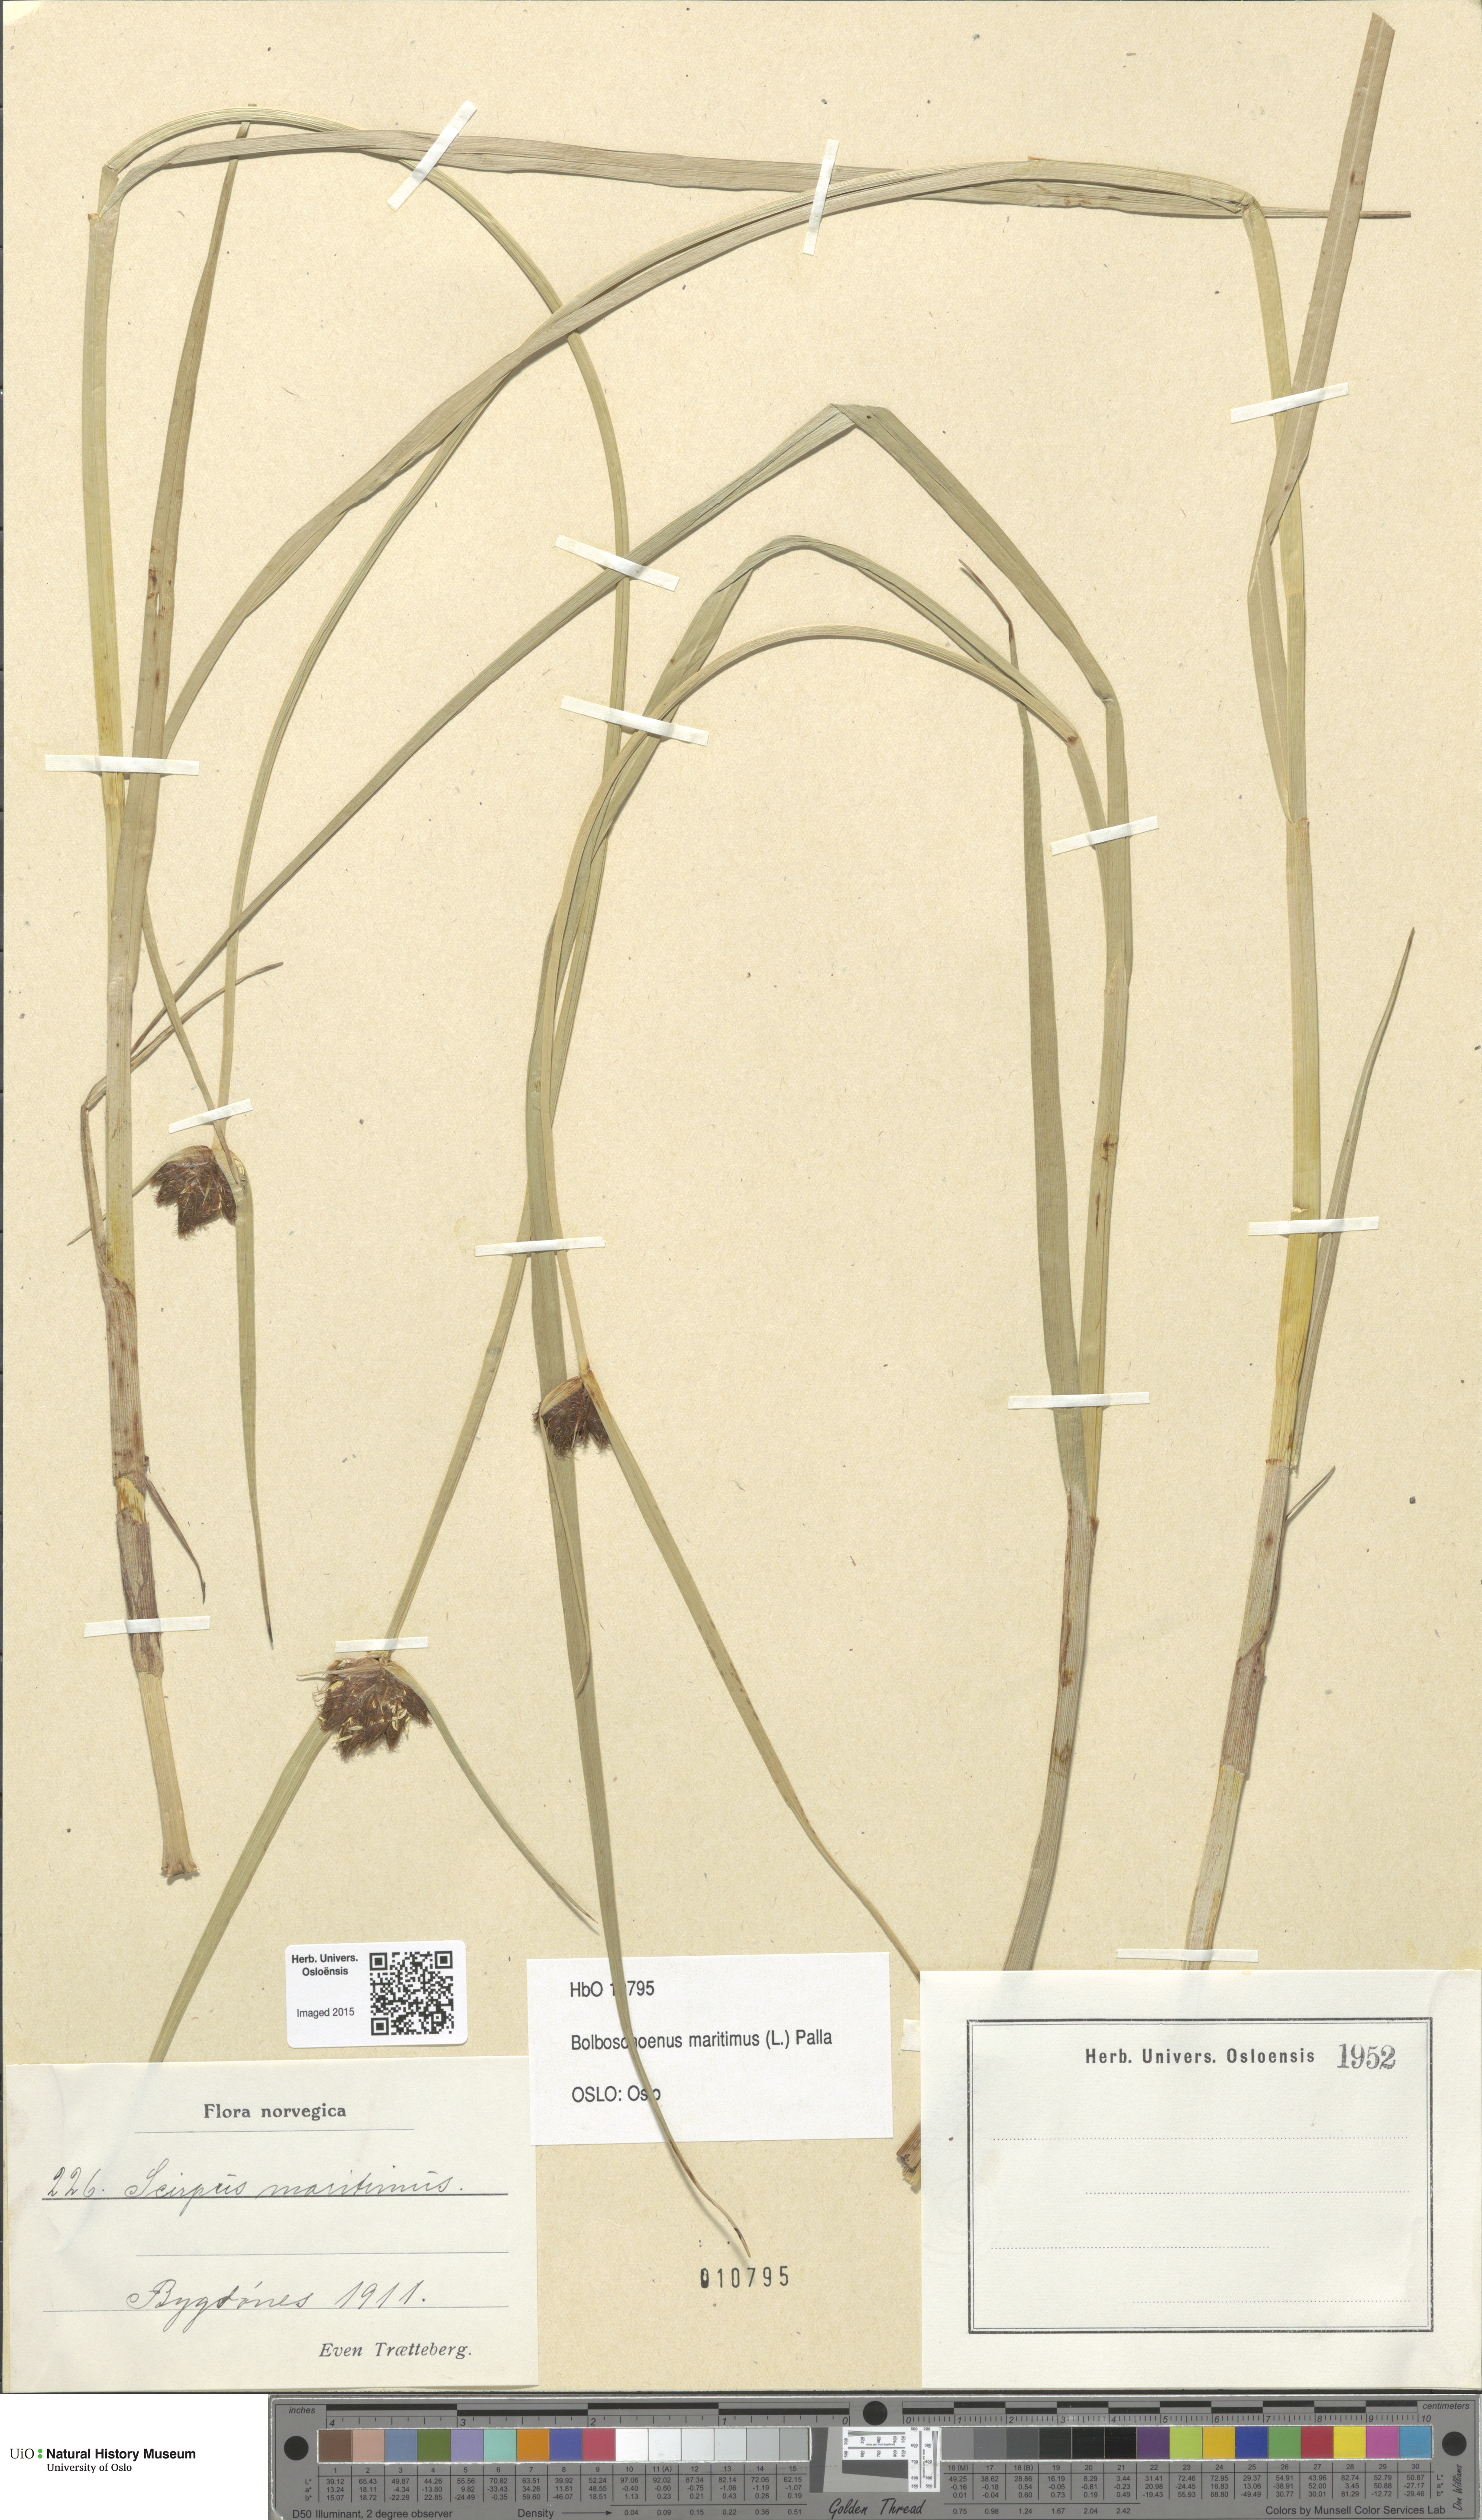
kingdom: Plantae
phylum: Tracheophyta
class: Liliopsida
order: Poales
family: Cyperaceae
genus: Bolboschoenus
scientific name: Bolboschoenus maritimus
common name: Sea club-rush
